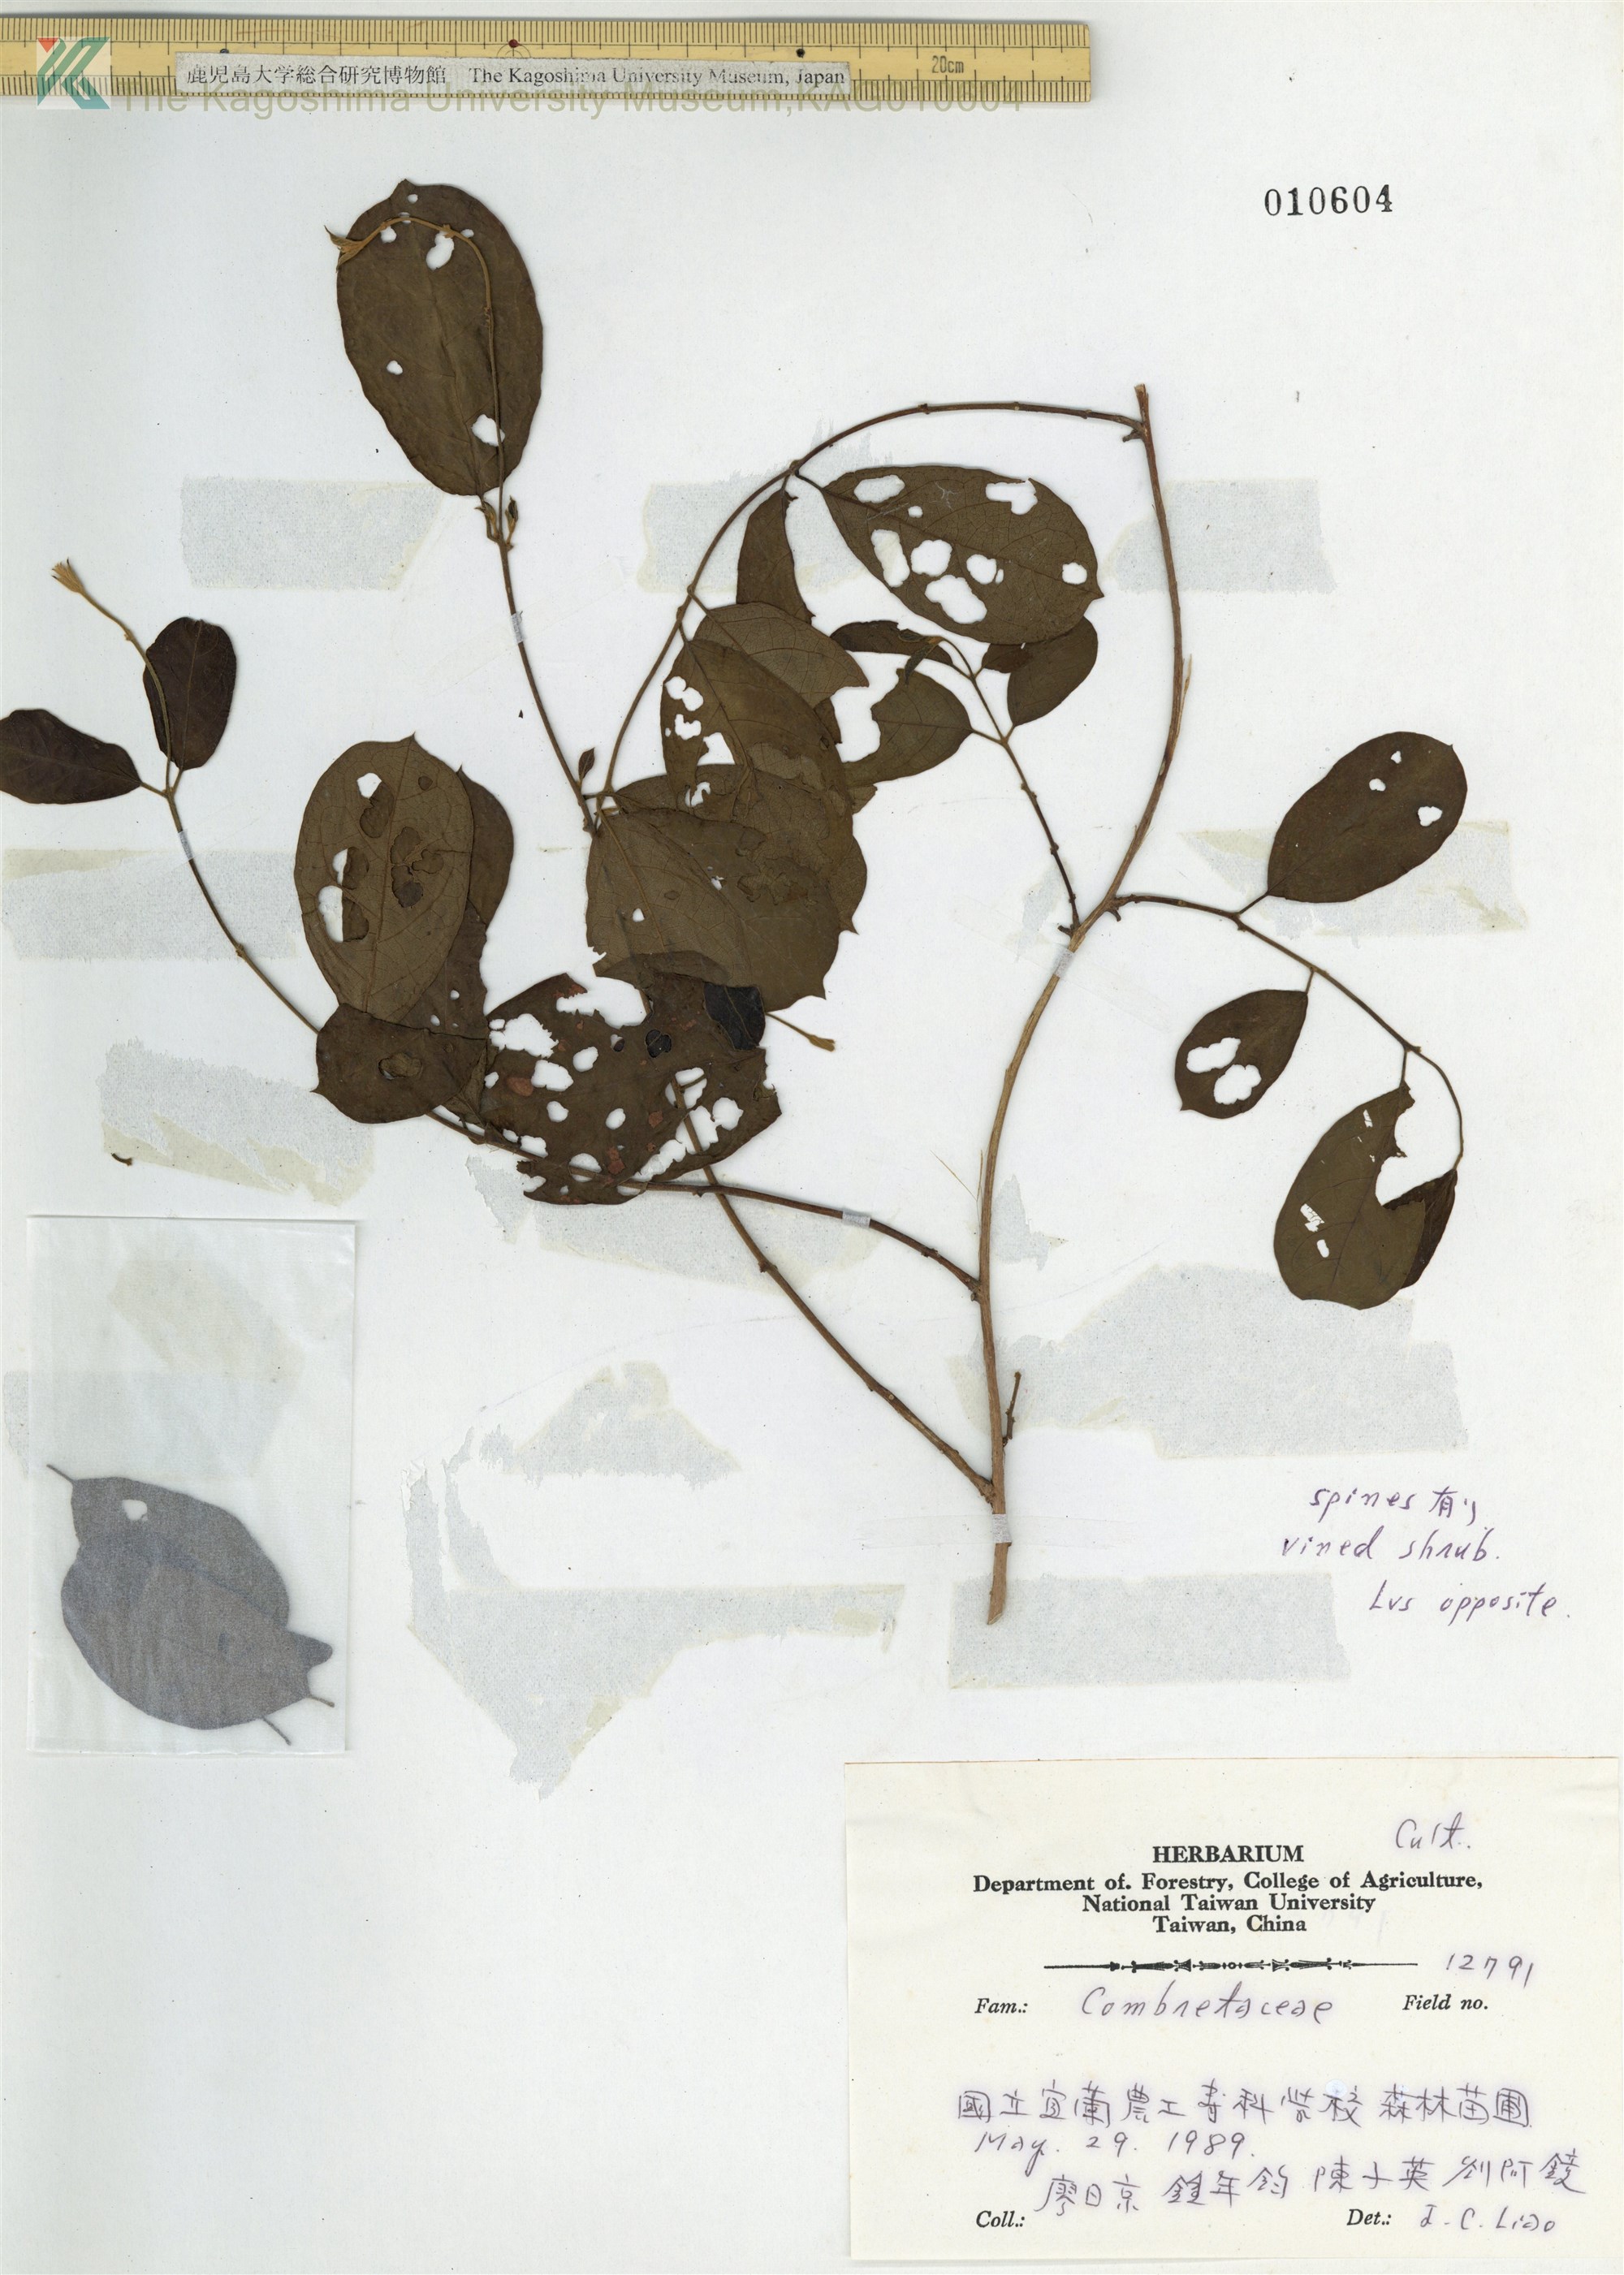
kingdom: Plantae
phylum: Tracheophyta
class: Magnoliopsida
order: Myrtales
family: Combretaceae
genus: Terminalia
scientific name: Terminalia
